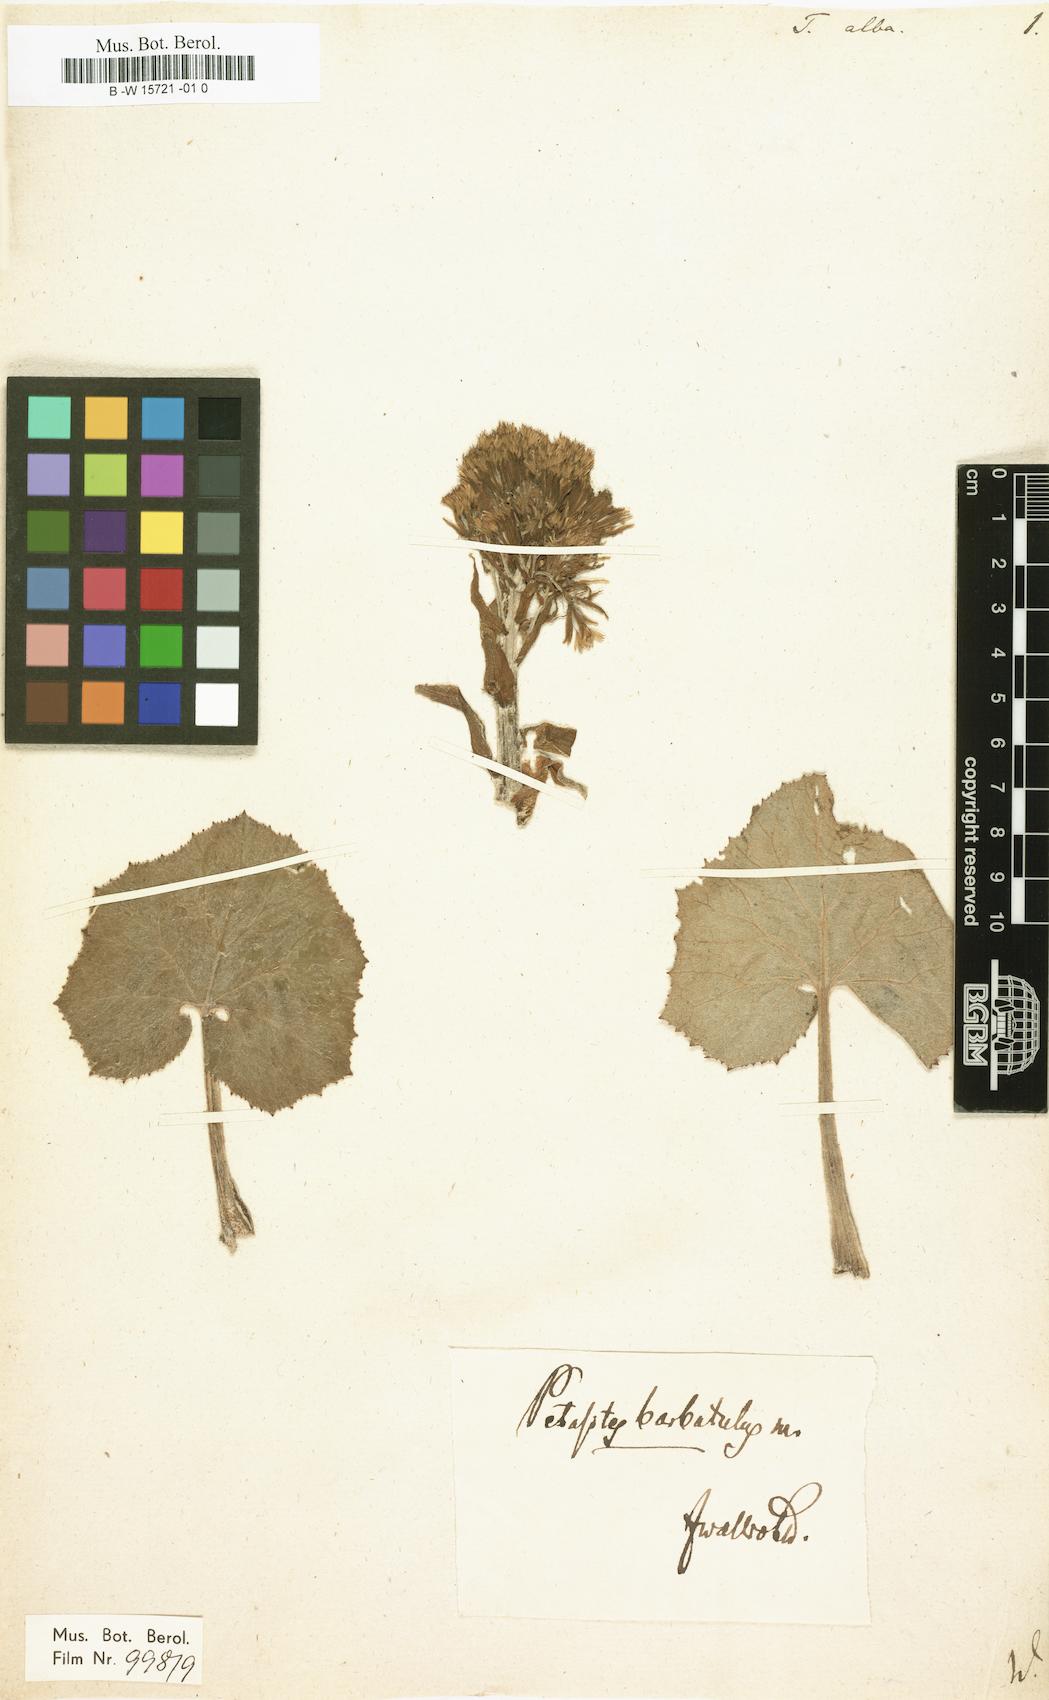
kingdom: Plantae
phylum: Tracheophyta
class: Magnoliopsida
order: Asterales
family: Asteraceae
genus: Petasites
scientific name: Petasites albus
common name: White butterbur
